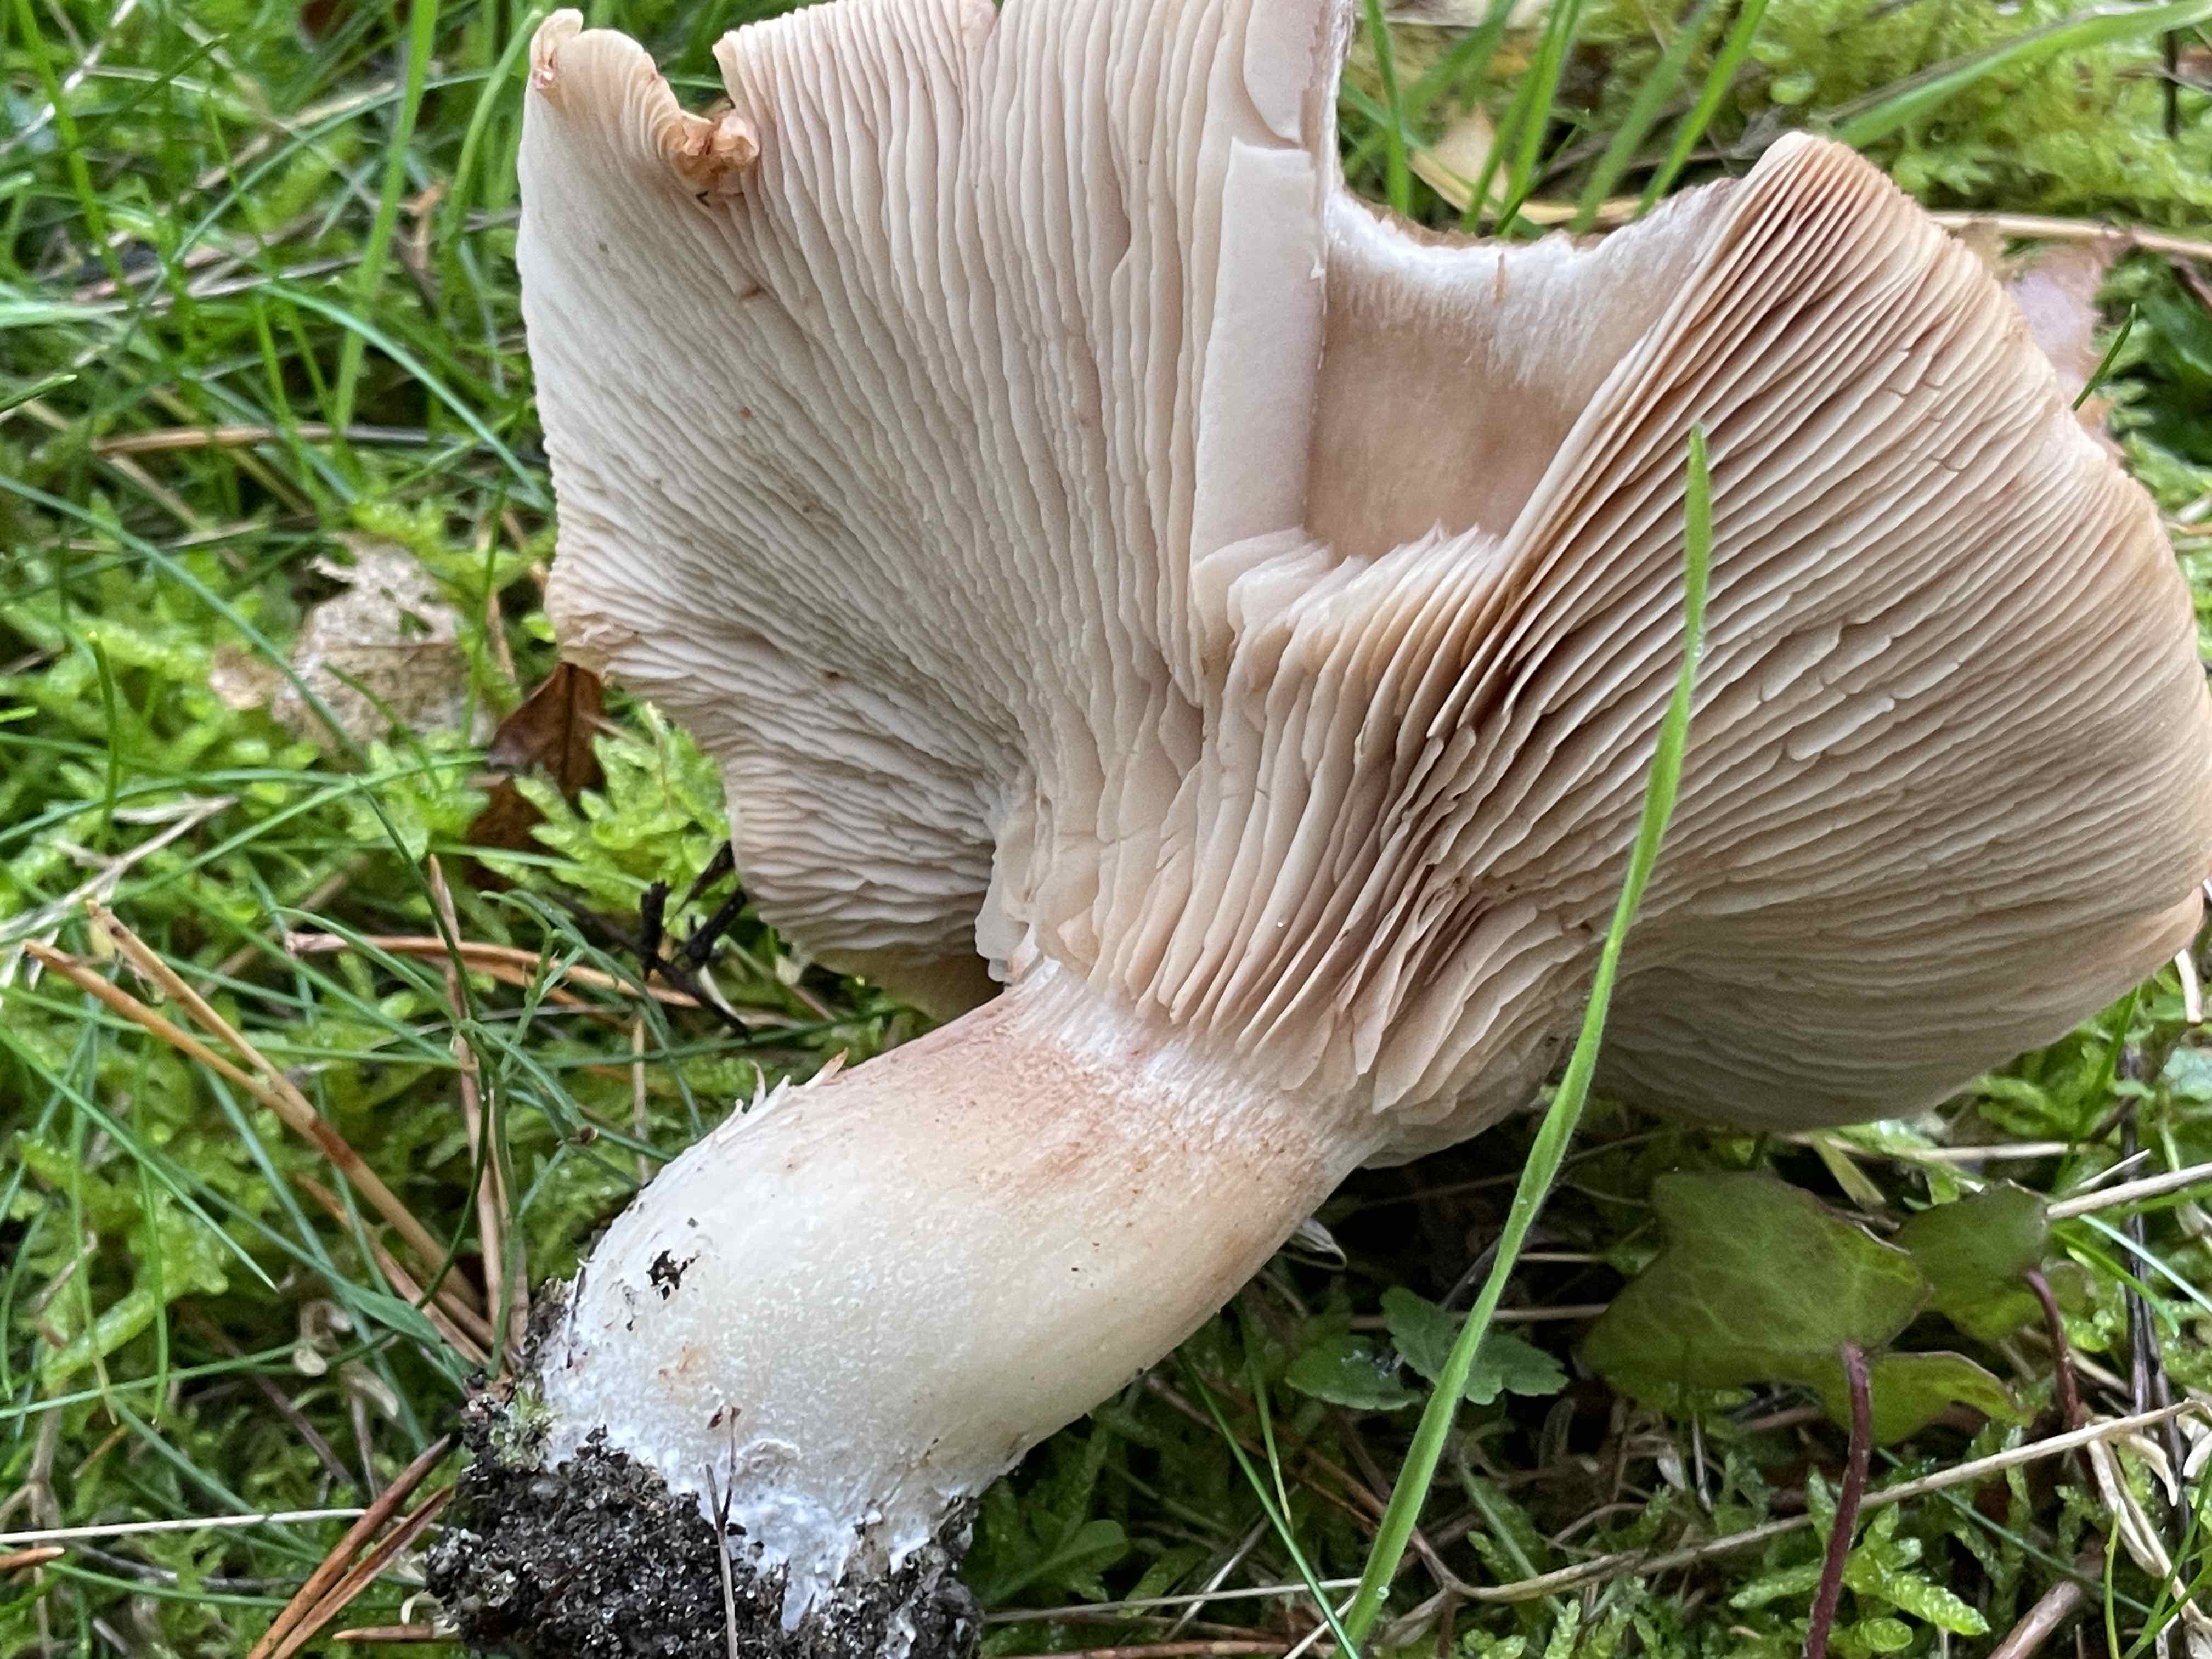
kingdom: Fungi
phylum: Basidiomycota
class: Agaricomycetes
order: Agaricales
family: Tricholomataceae
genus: Lepista
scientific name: Lepista irina
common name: violduftende hekseringshat
